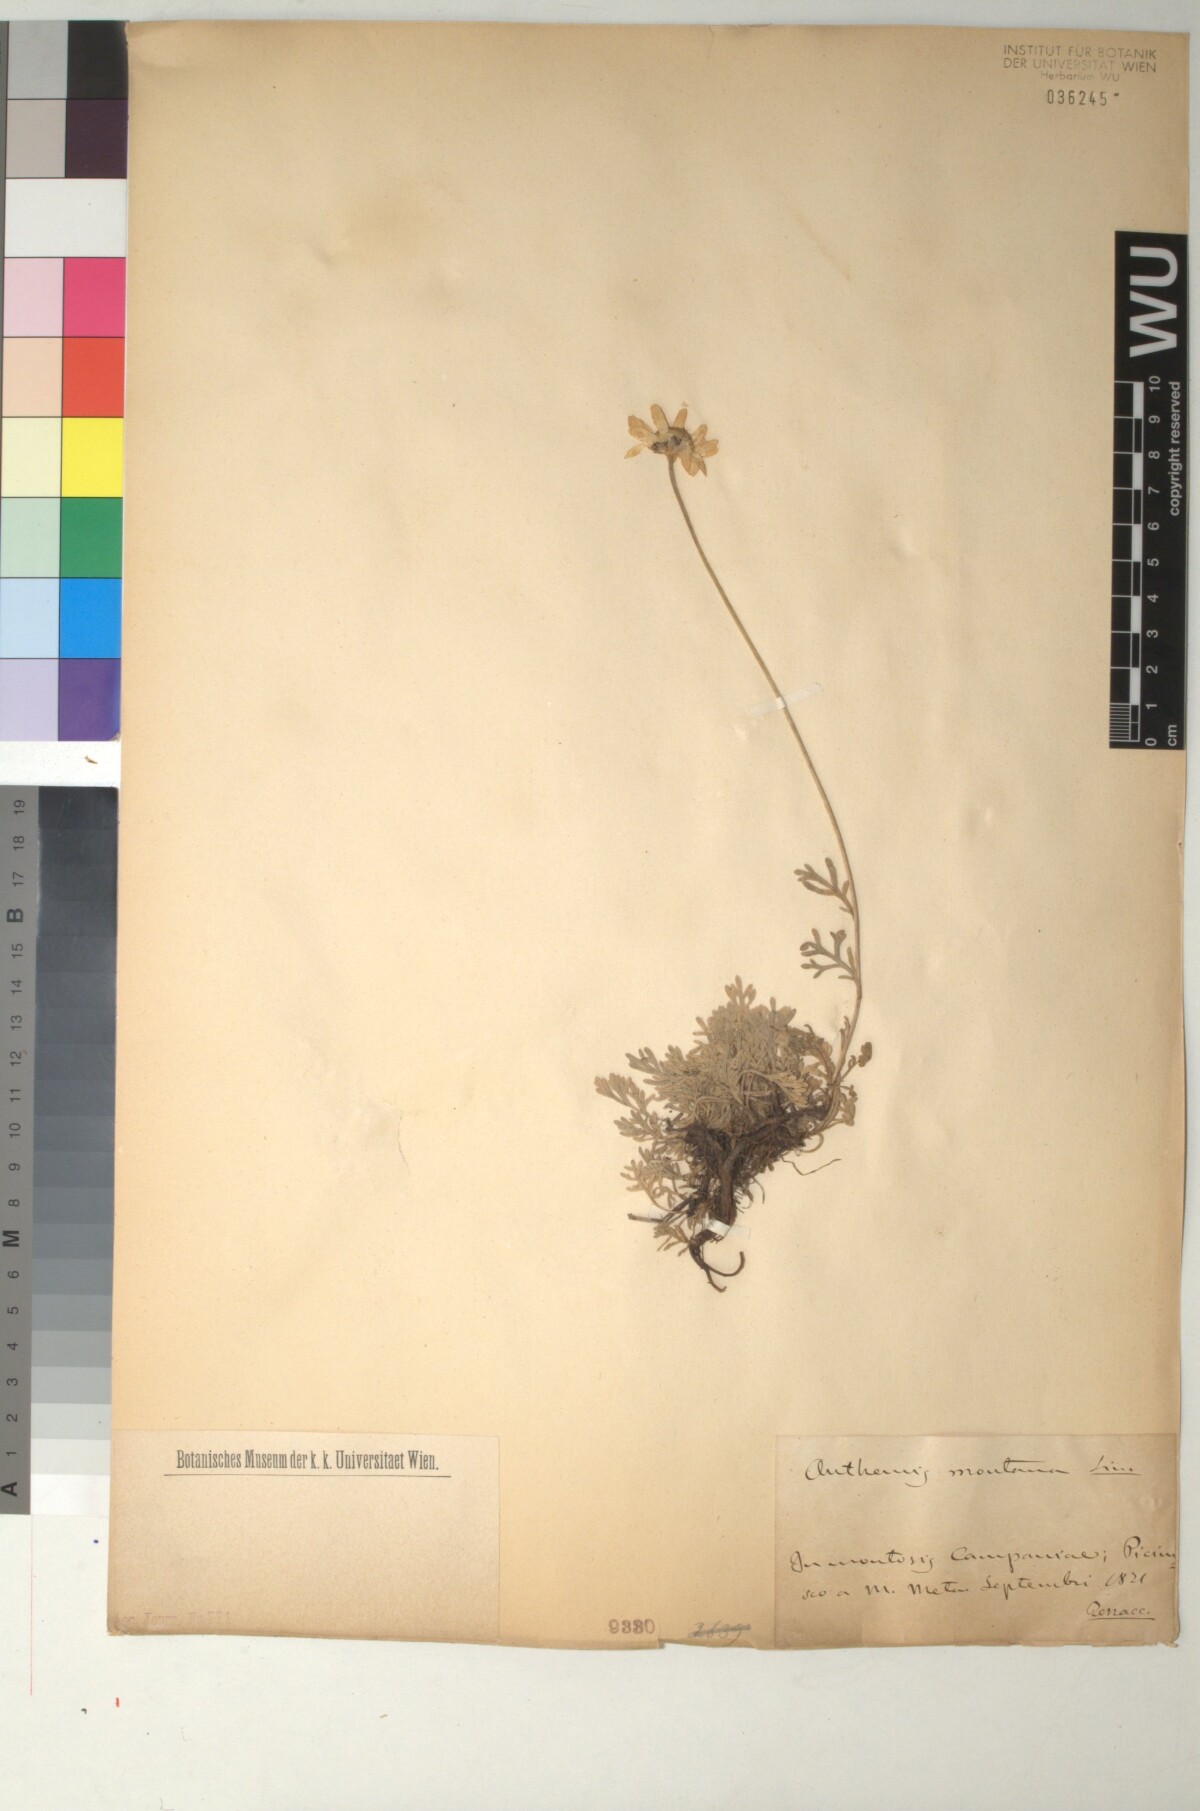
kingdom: Plantae
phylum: Tracheophyta
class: Magnoliopsida
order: Asterales
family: Asteraceae
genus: Anthemis
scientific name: Anthemis cretica
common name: Mountain dog-daisy
